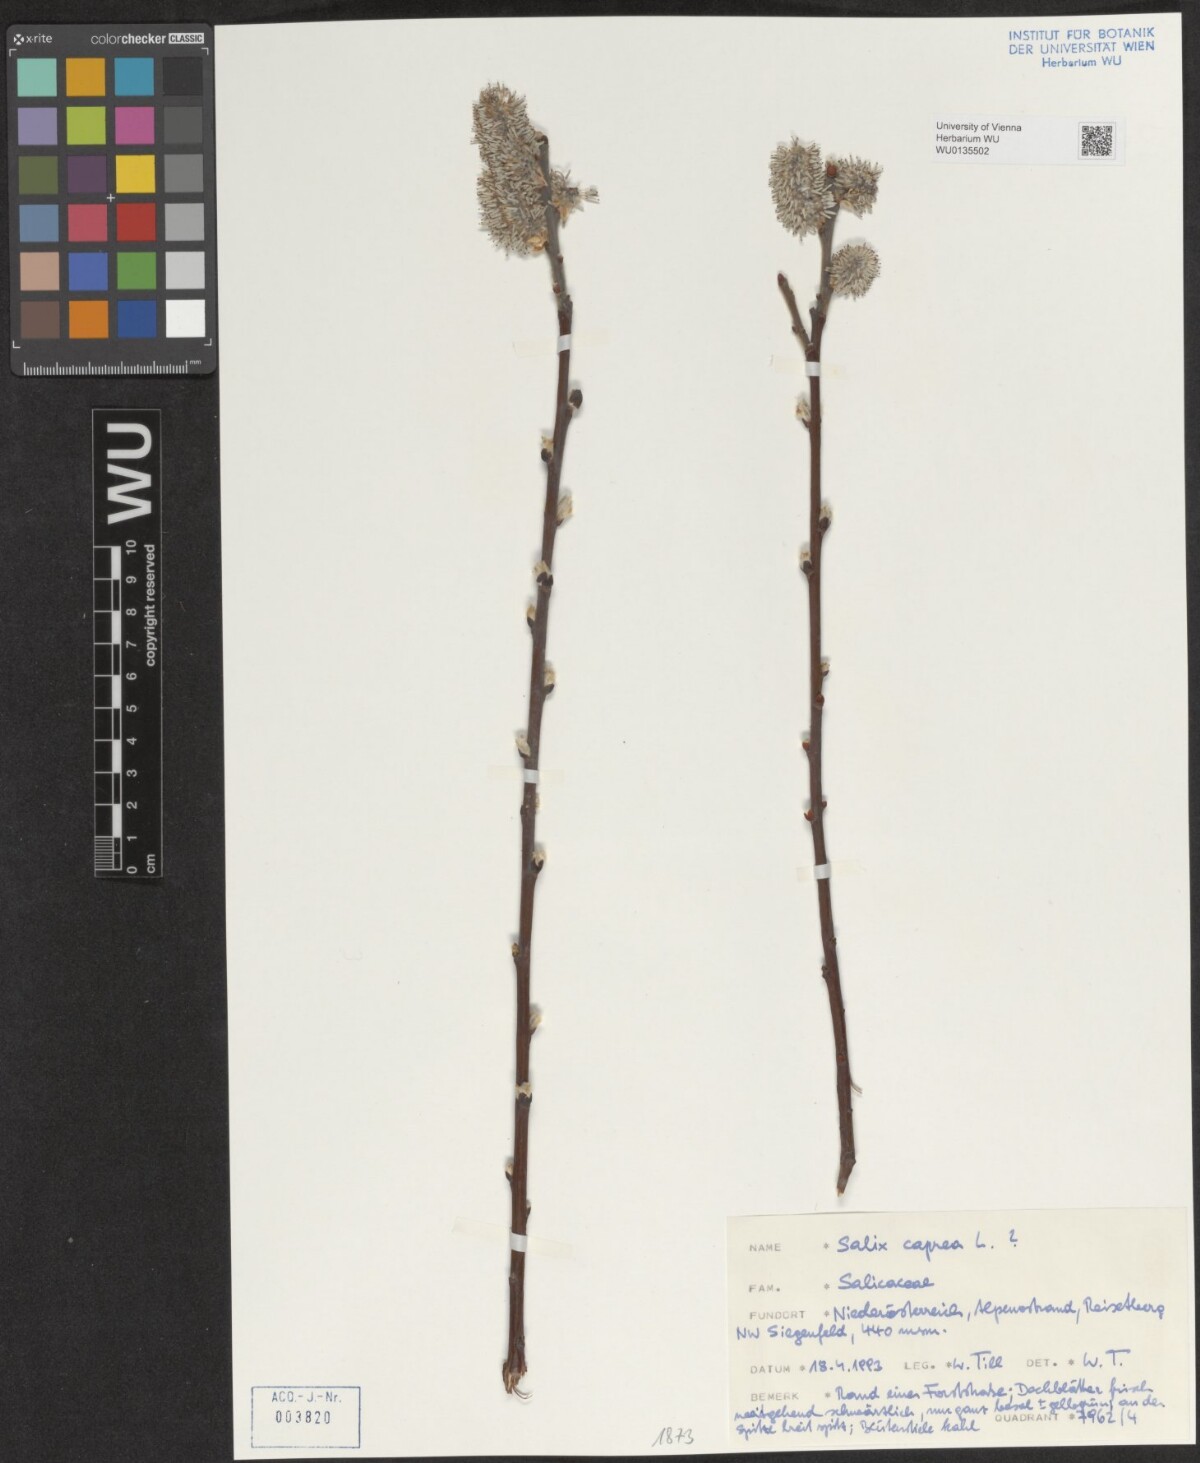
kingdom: Plantae
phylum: Tracheophyta
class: Magnoliopsida
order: Malpighiales
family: Salicaceae
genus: Salix
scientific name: Salix caprea
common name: Goat willow
